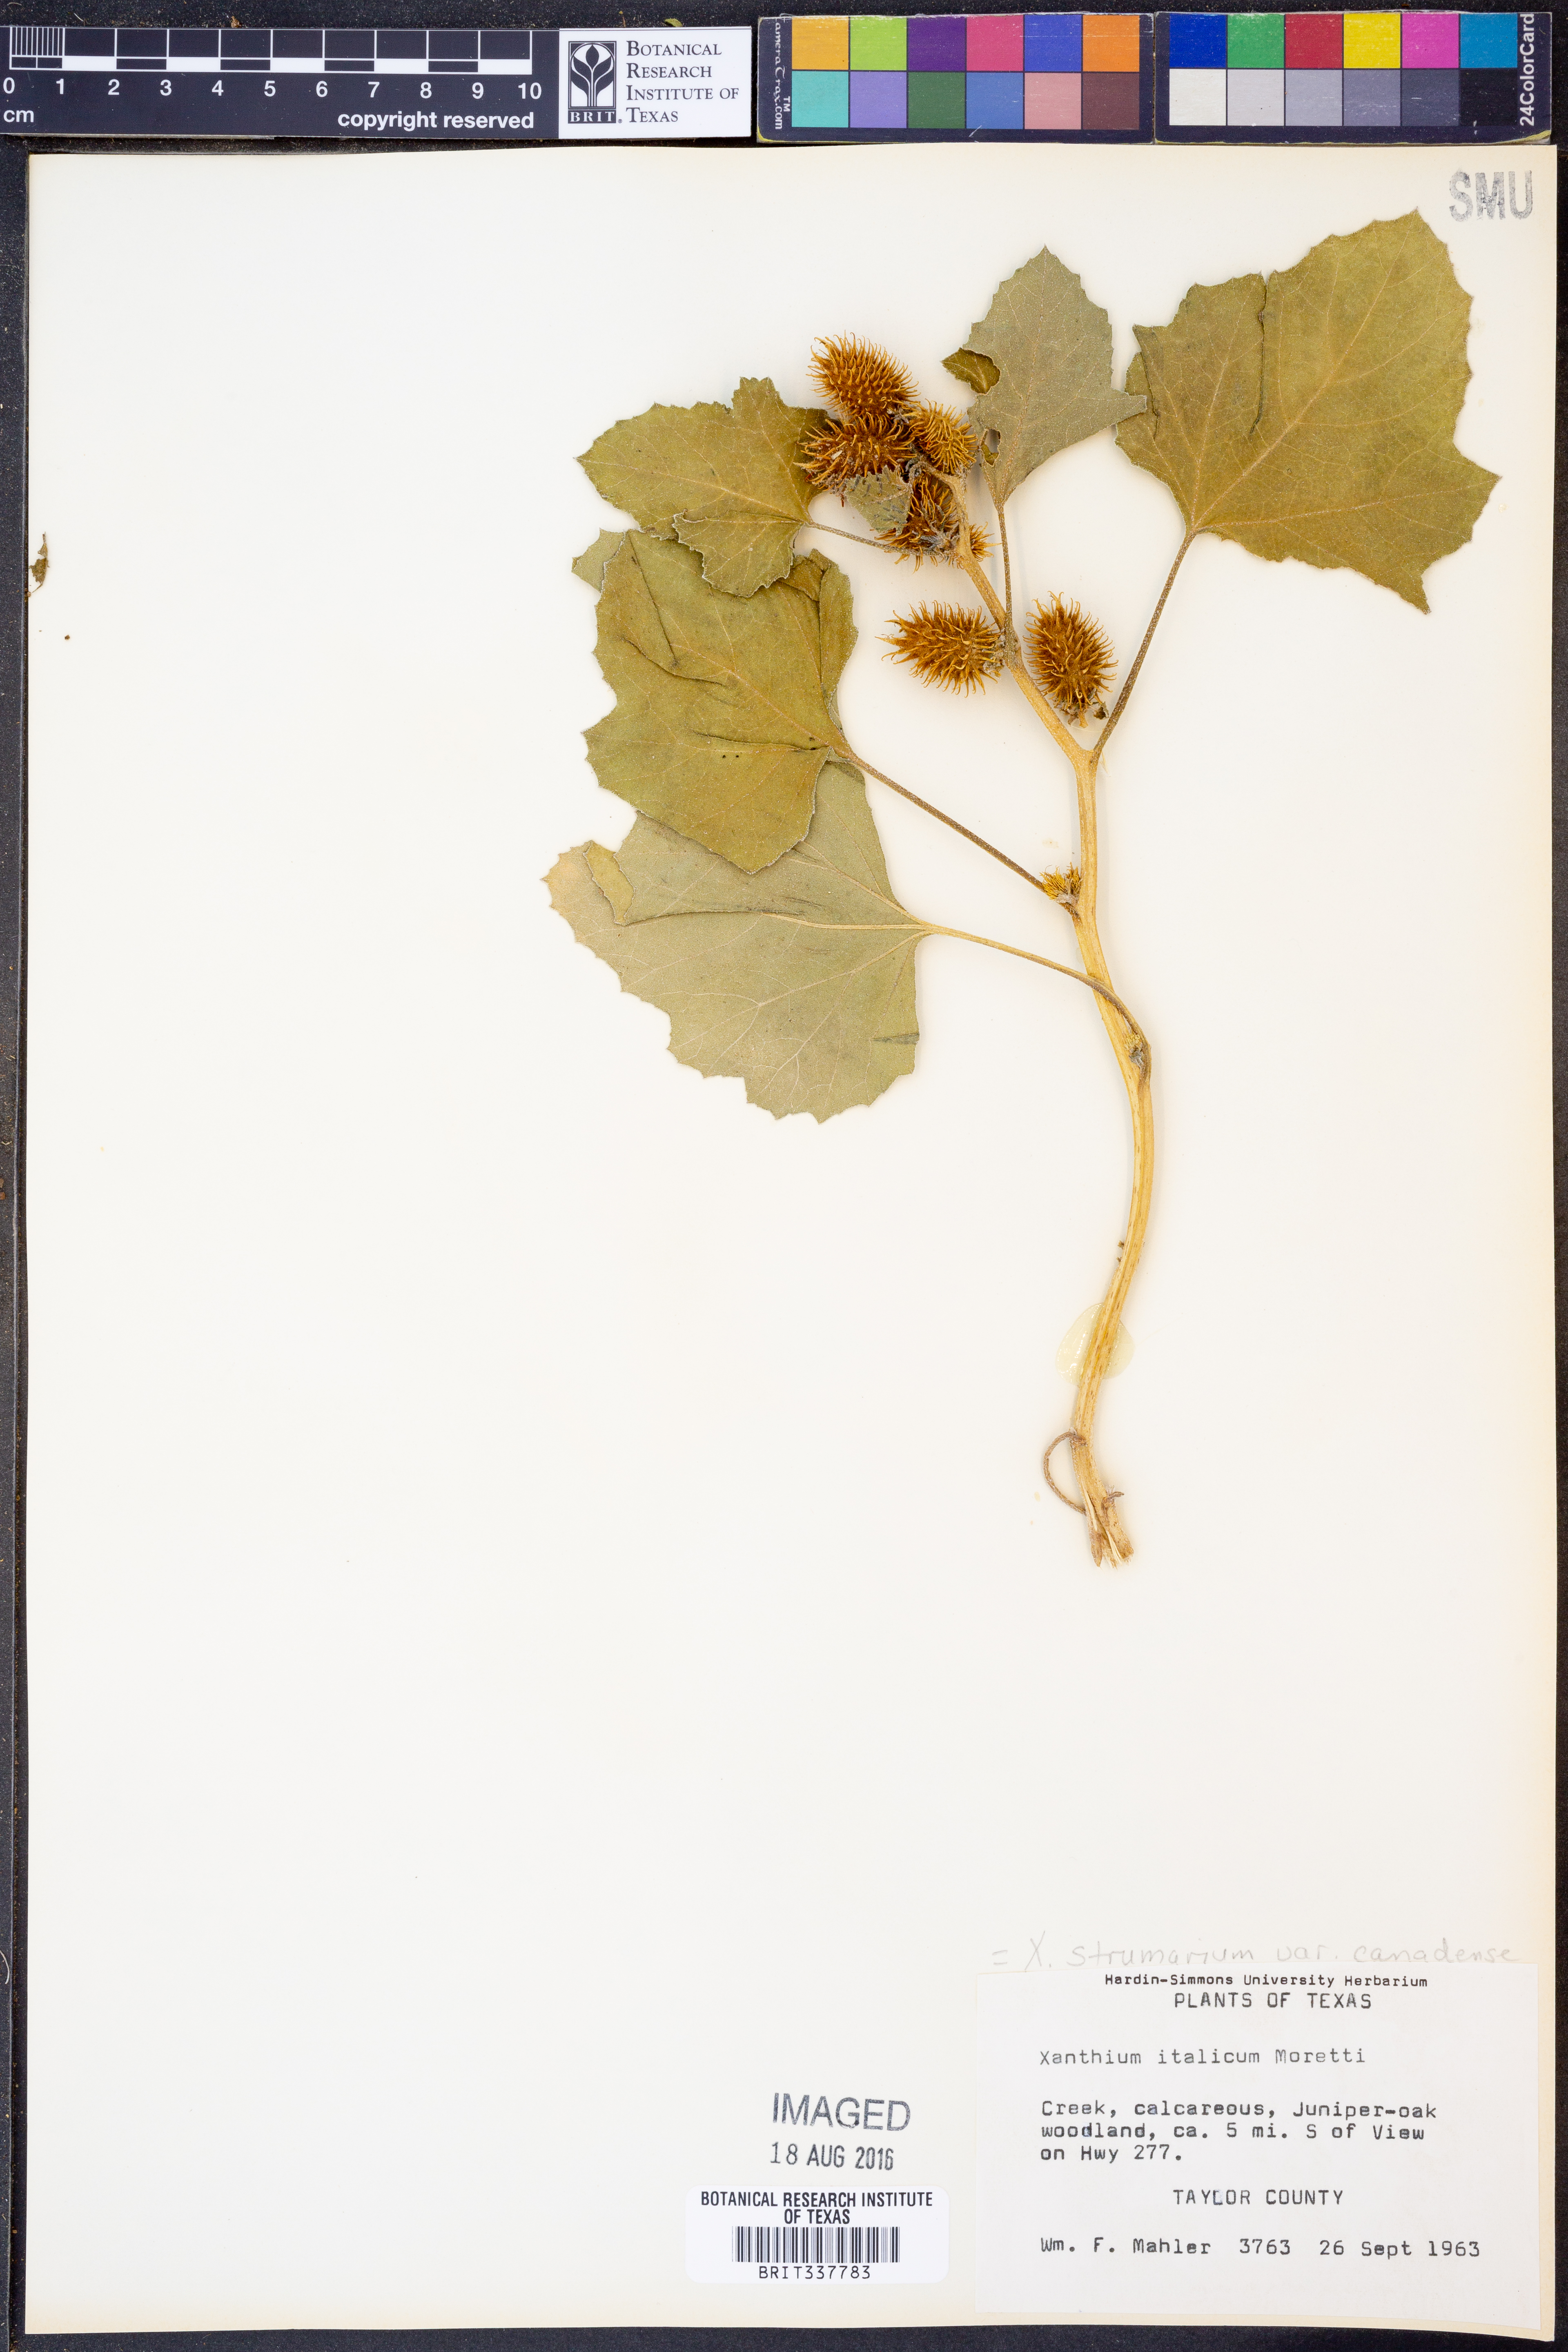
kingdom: Plantae
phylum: Tracheophyta
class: Magnoliopsida
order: Asterales
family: Asteraceae
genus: Xanthium
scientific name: Xanthium orientale
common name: Californian burr
